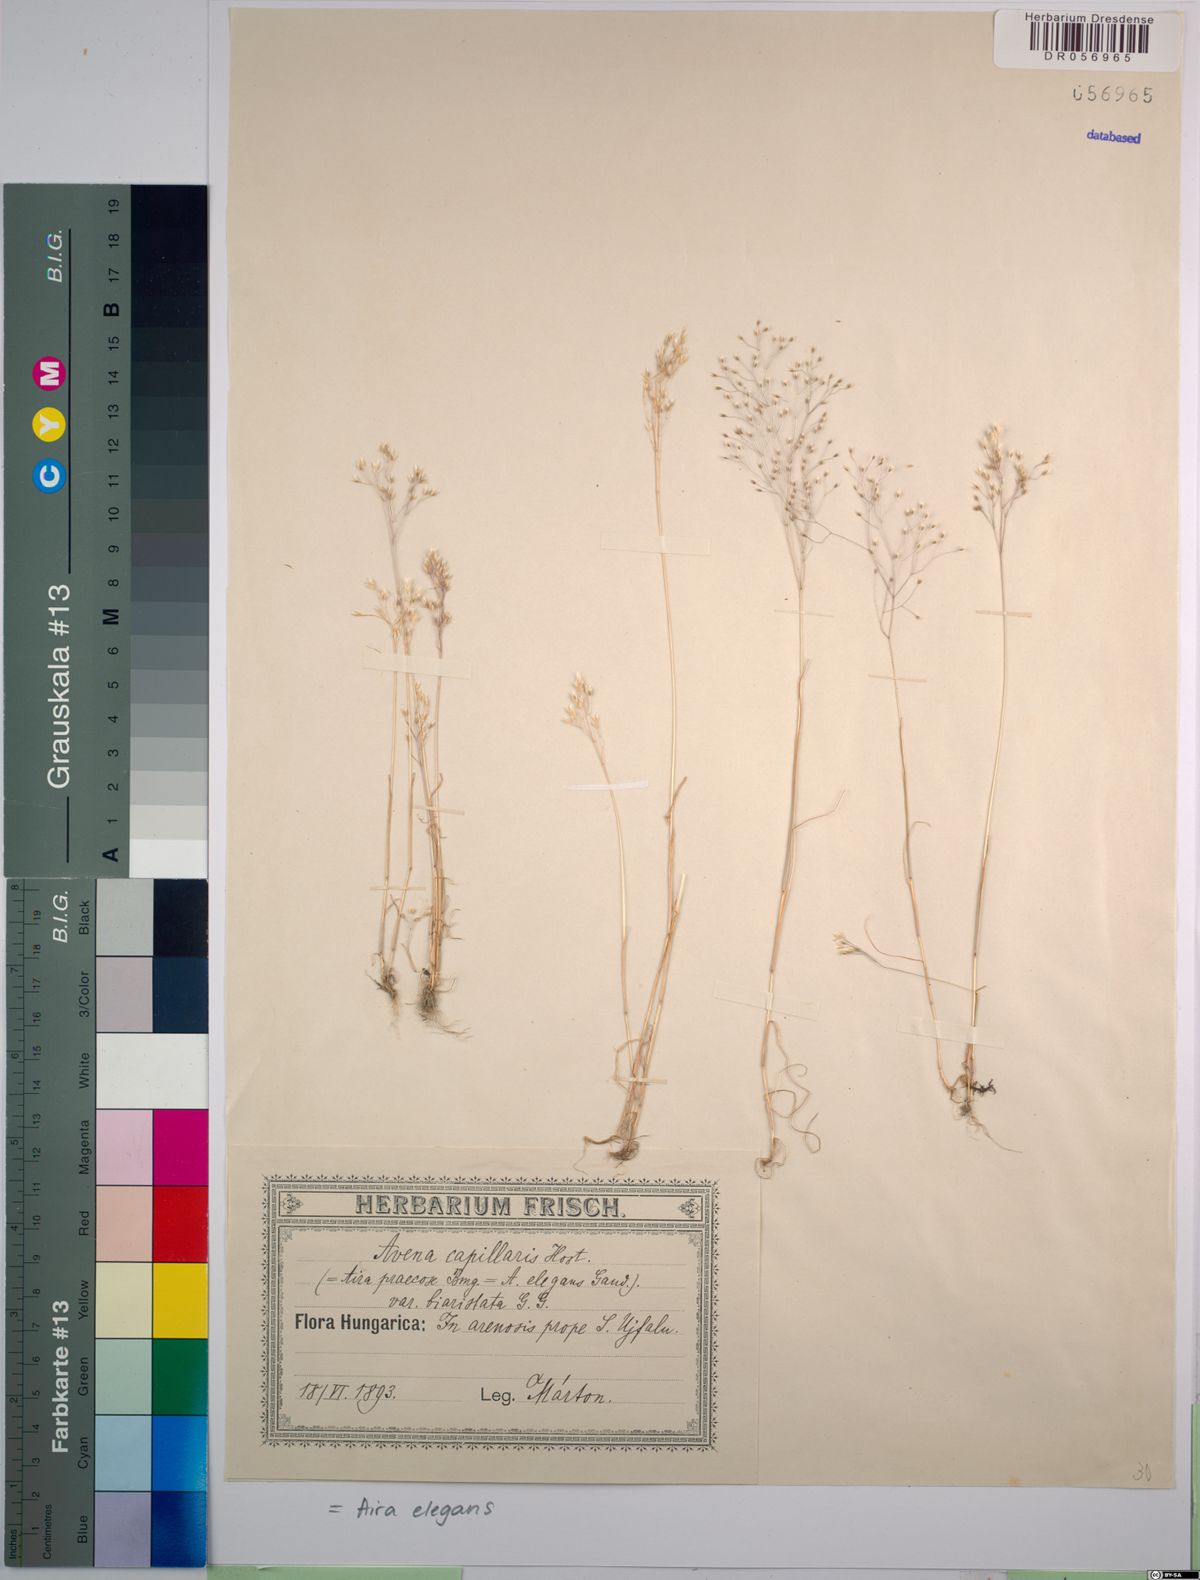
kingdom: Plantae
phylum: Tracheophyta
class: Liliopsida
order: Poales
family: Poaceae
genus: Aira
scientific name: Aira elegans
